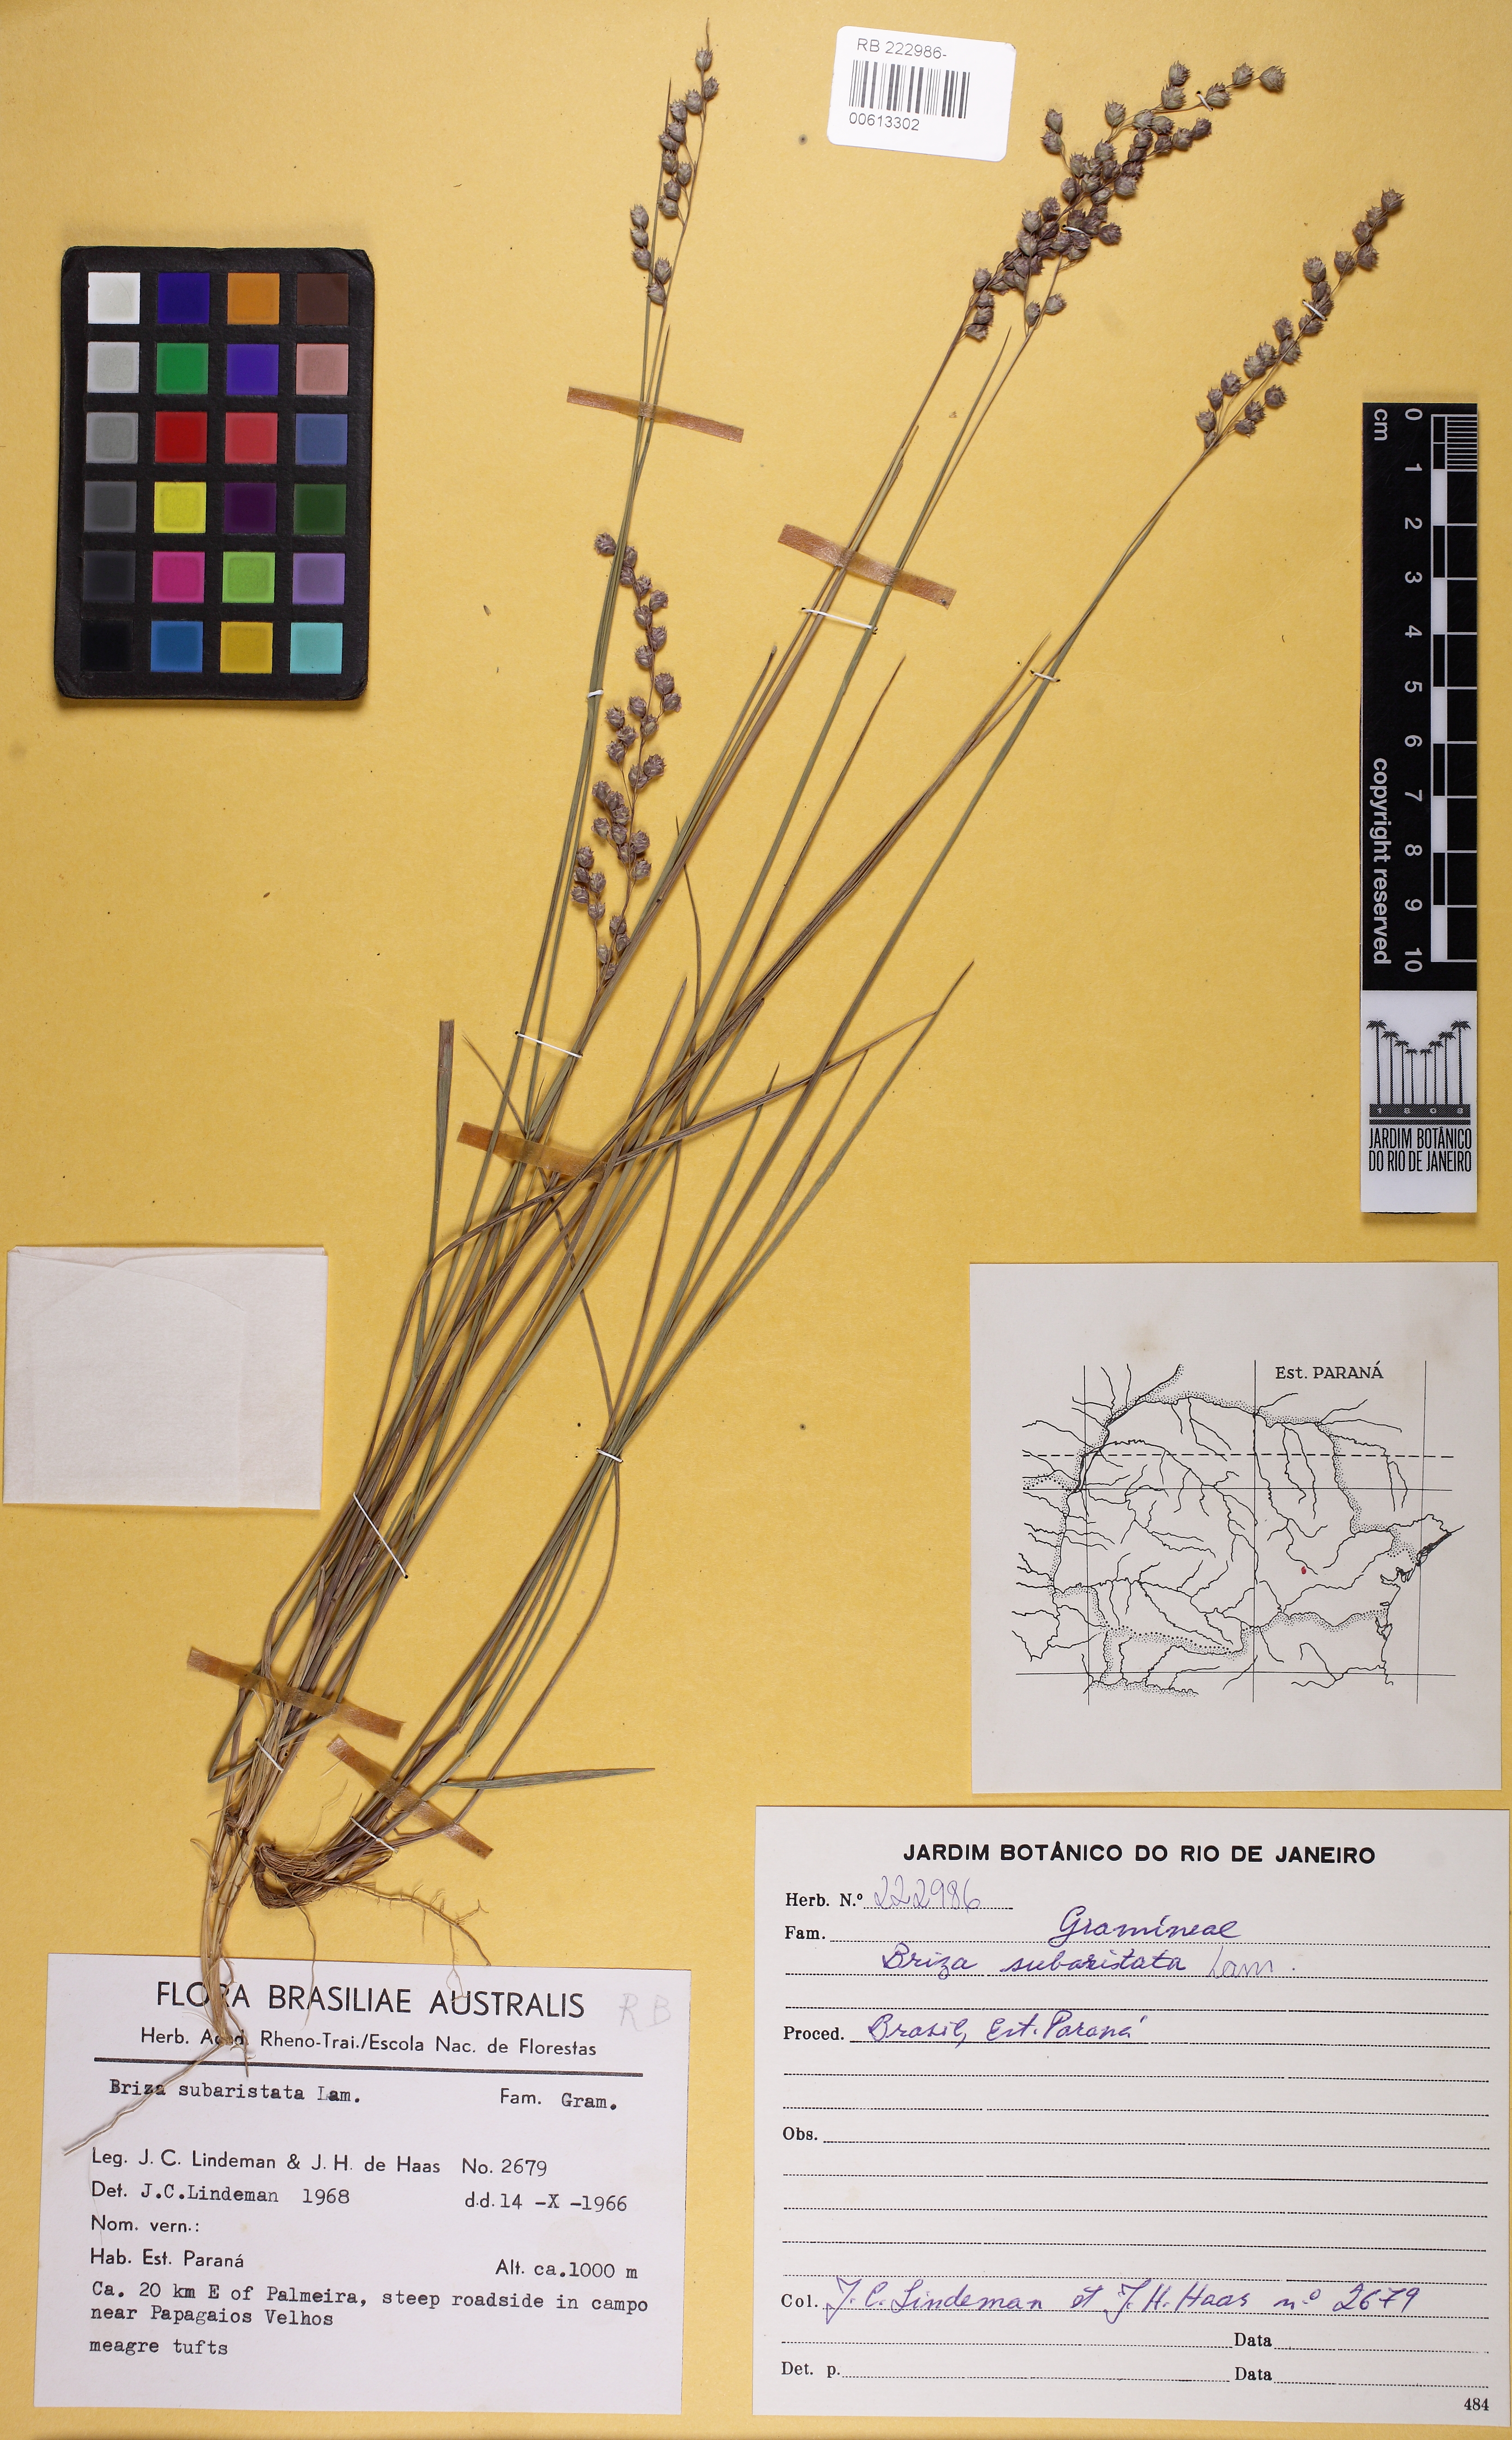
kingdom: Plantae
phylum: Tracheophyta
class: Liliopsida
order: Poales
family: Poaceae
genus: Chascolytrum
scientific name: Chascolytrum subaristatum
